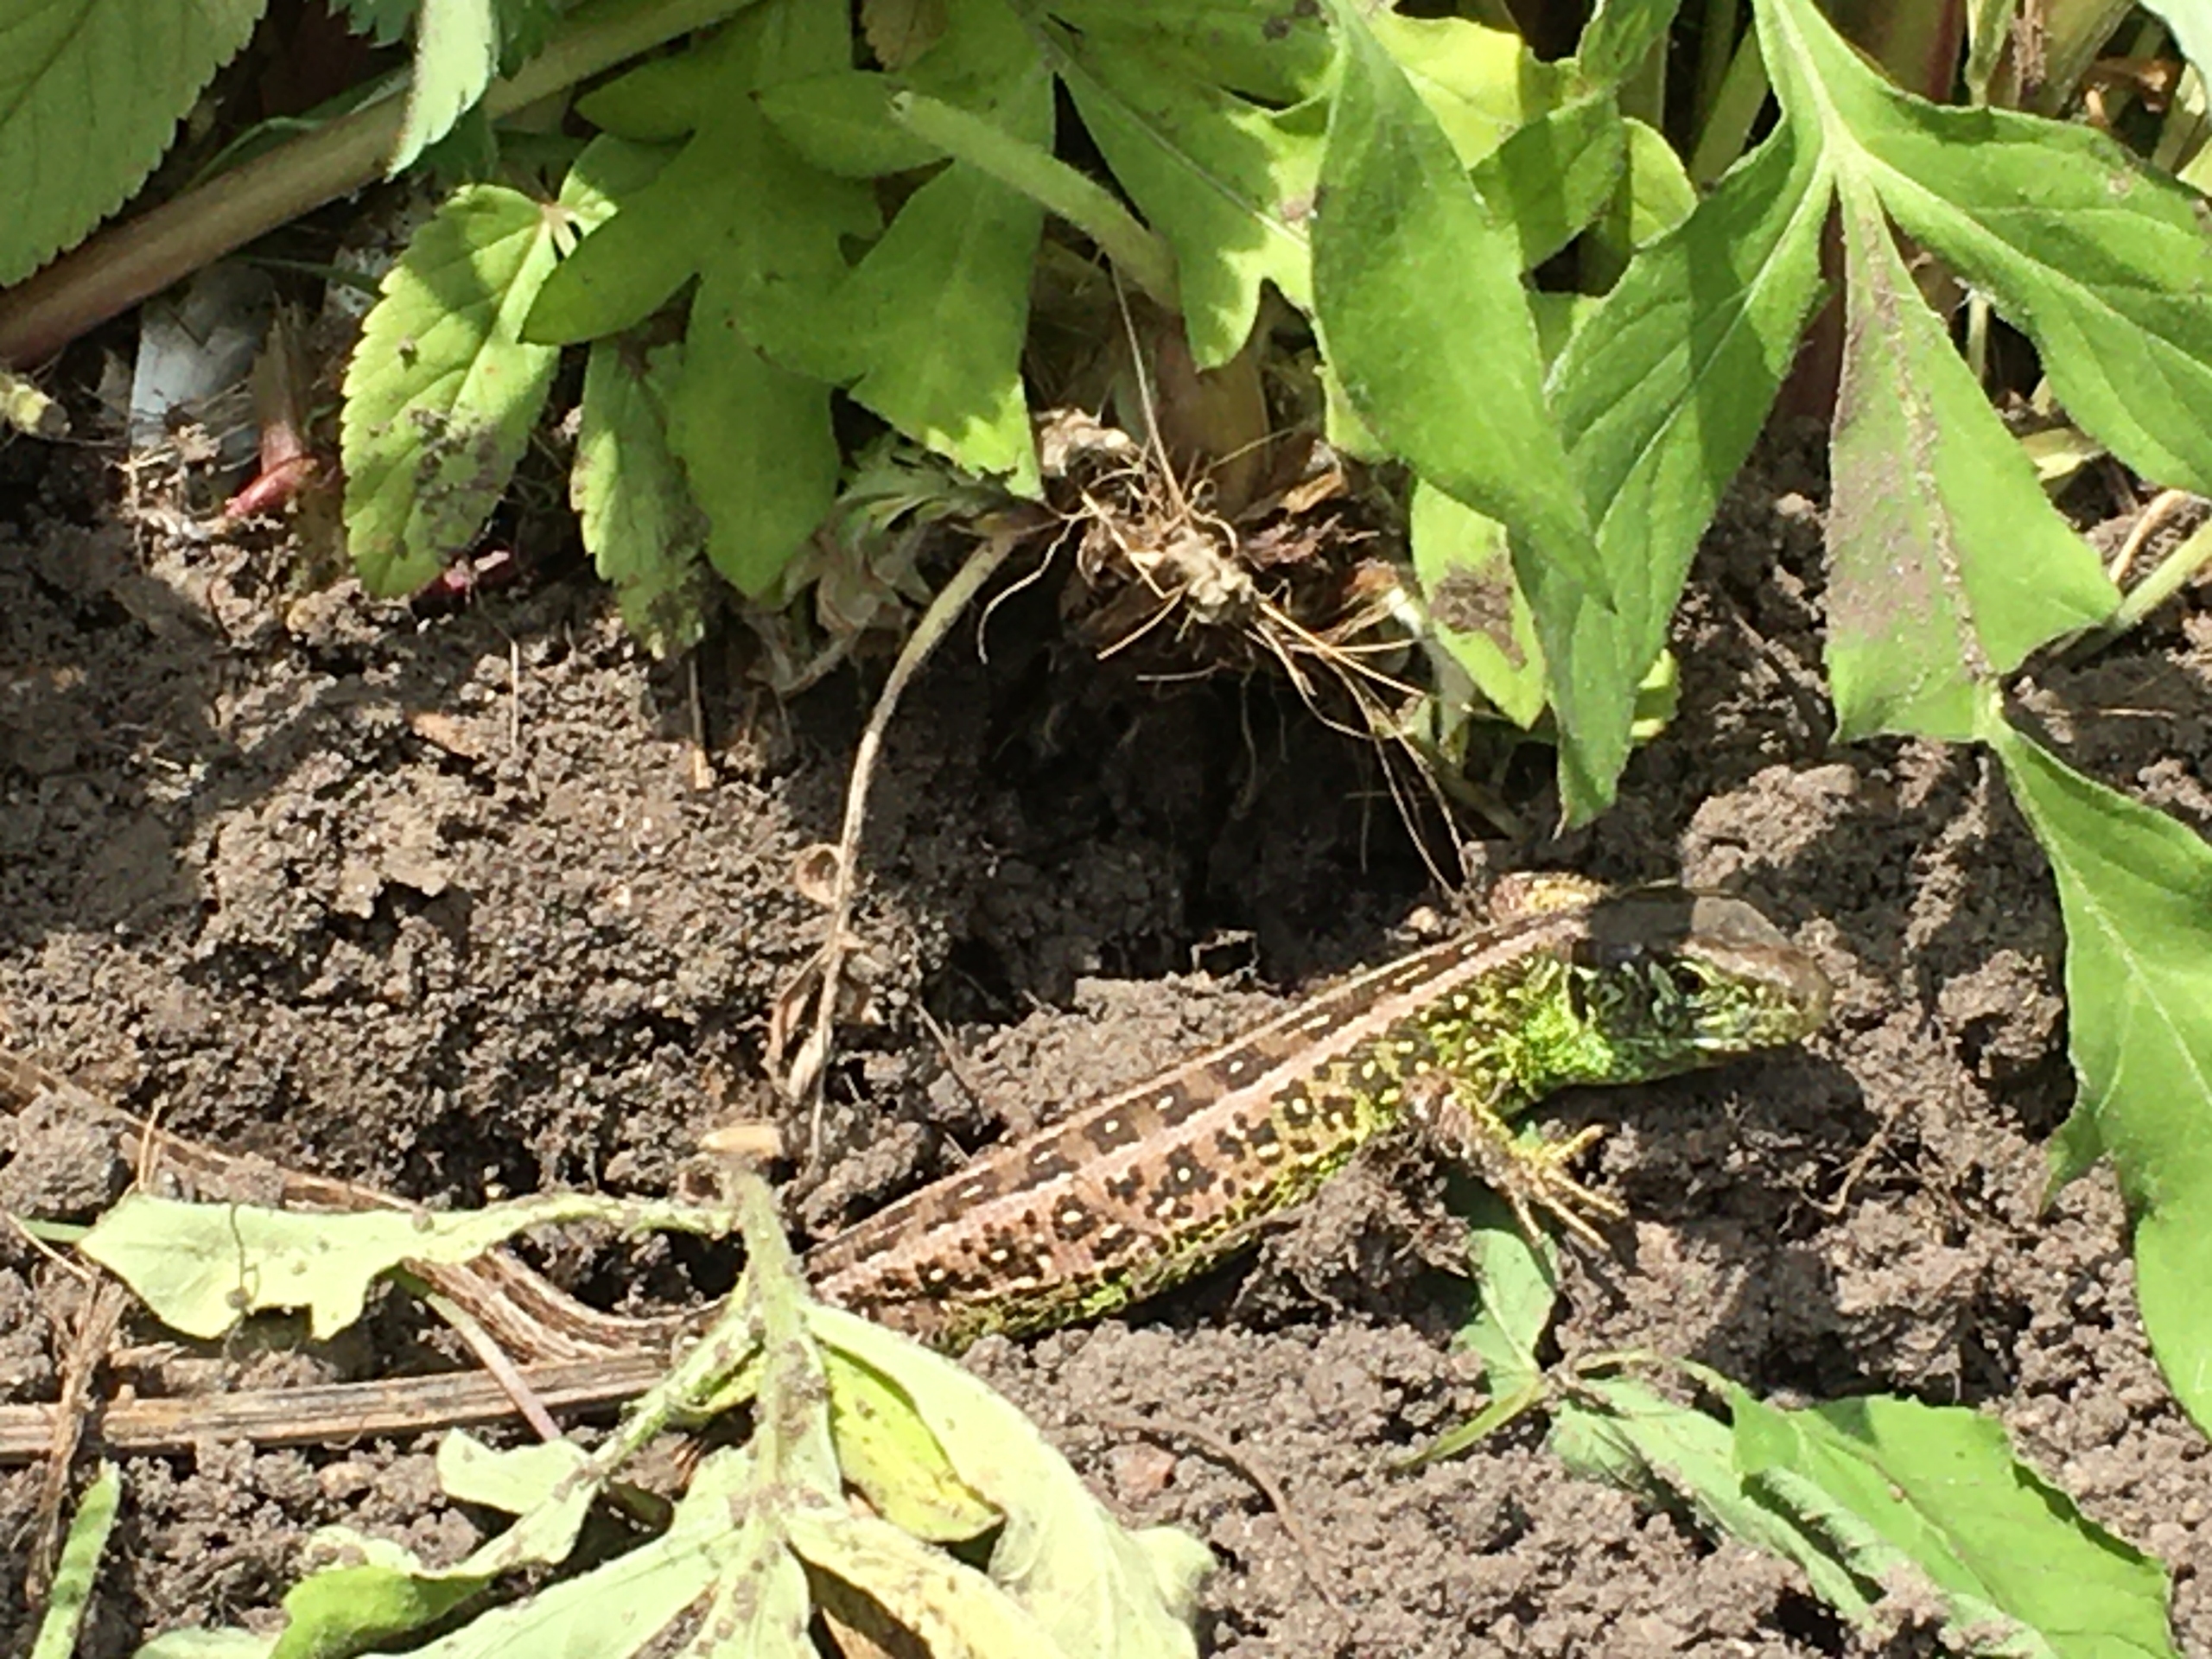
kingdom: Animalia
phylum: Chordata
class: Squamata
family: Lacertidae
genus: Lacerta
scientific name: Lacerta agilis
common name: Markfirben
